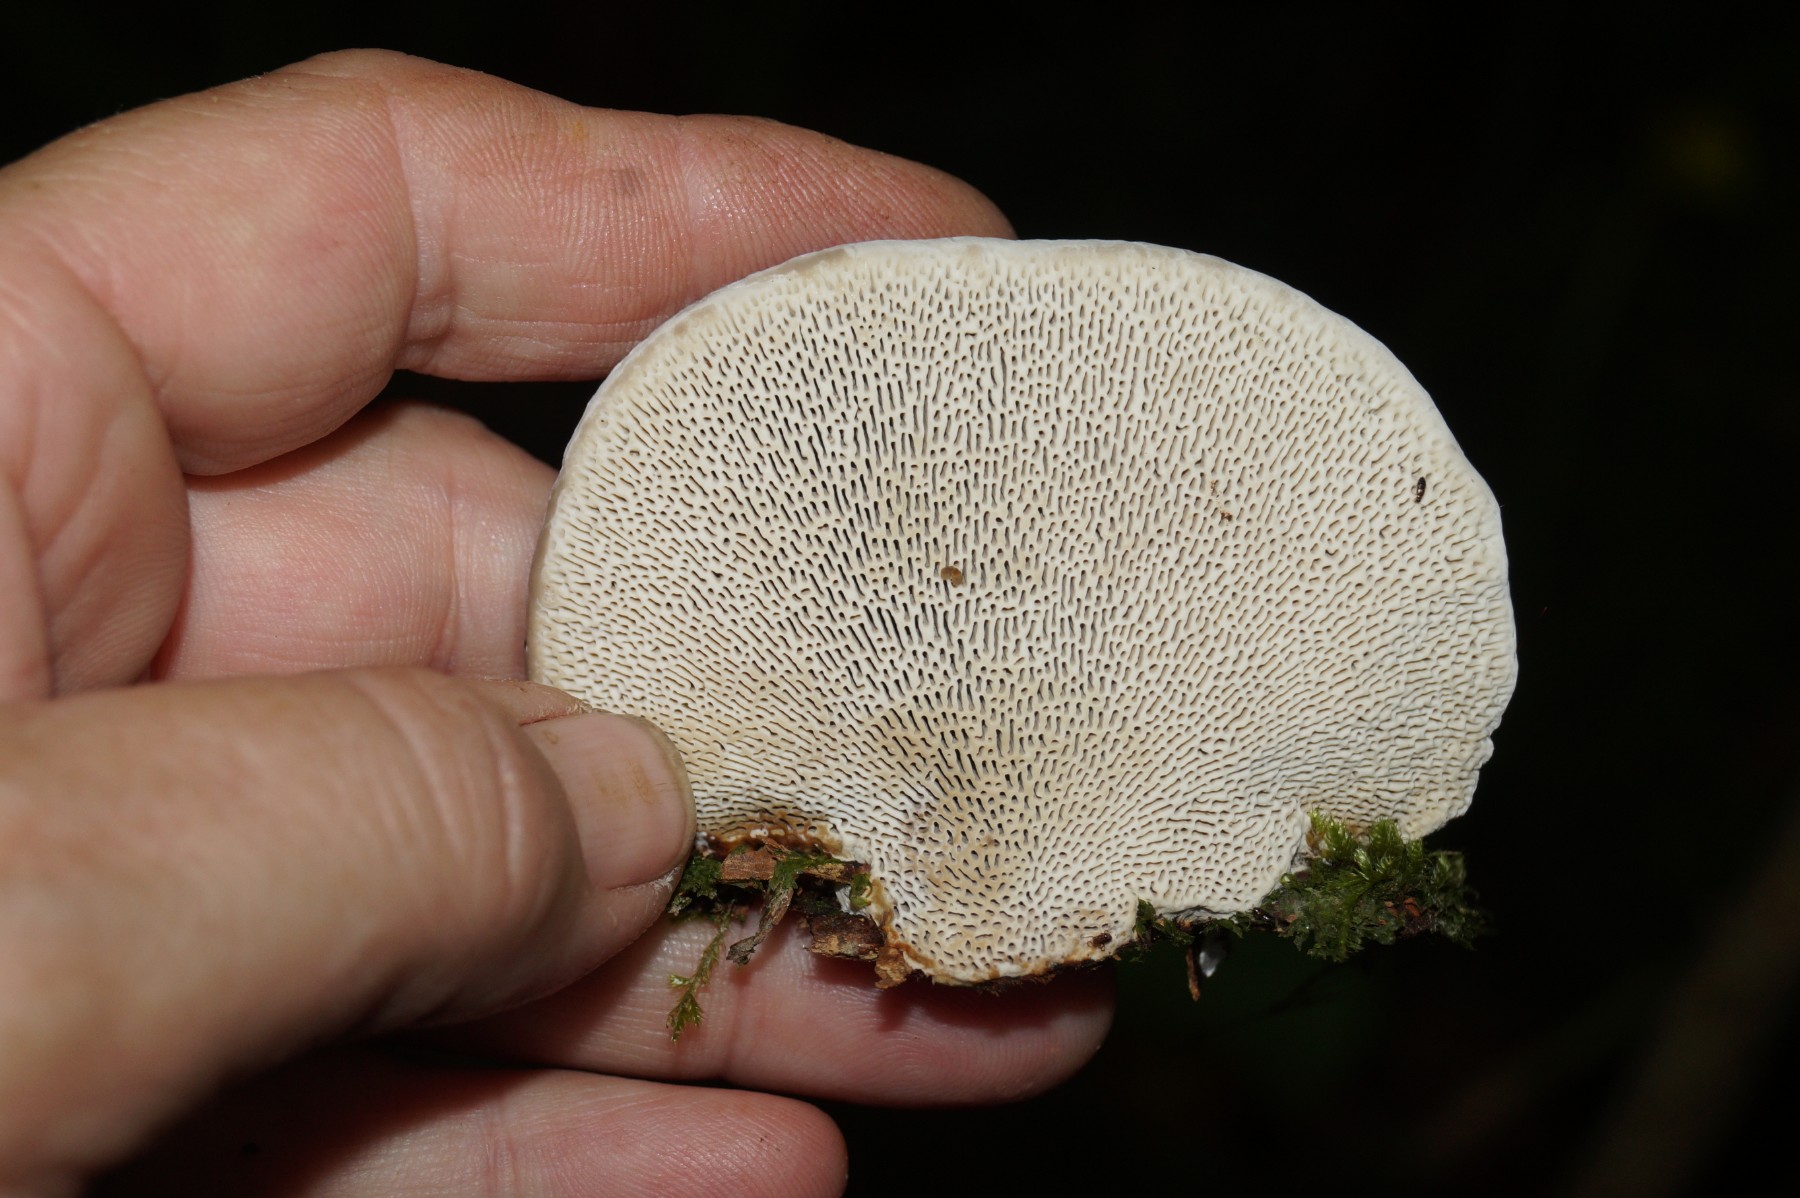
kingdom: Fungi
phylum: Basidiomycota
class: Agaricomycetes
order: Polyporales
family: Polyporaceae
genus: Daedaleopsis
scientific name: Daedaleopsis confragosa
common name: rødmende læderporesvamp
